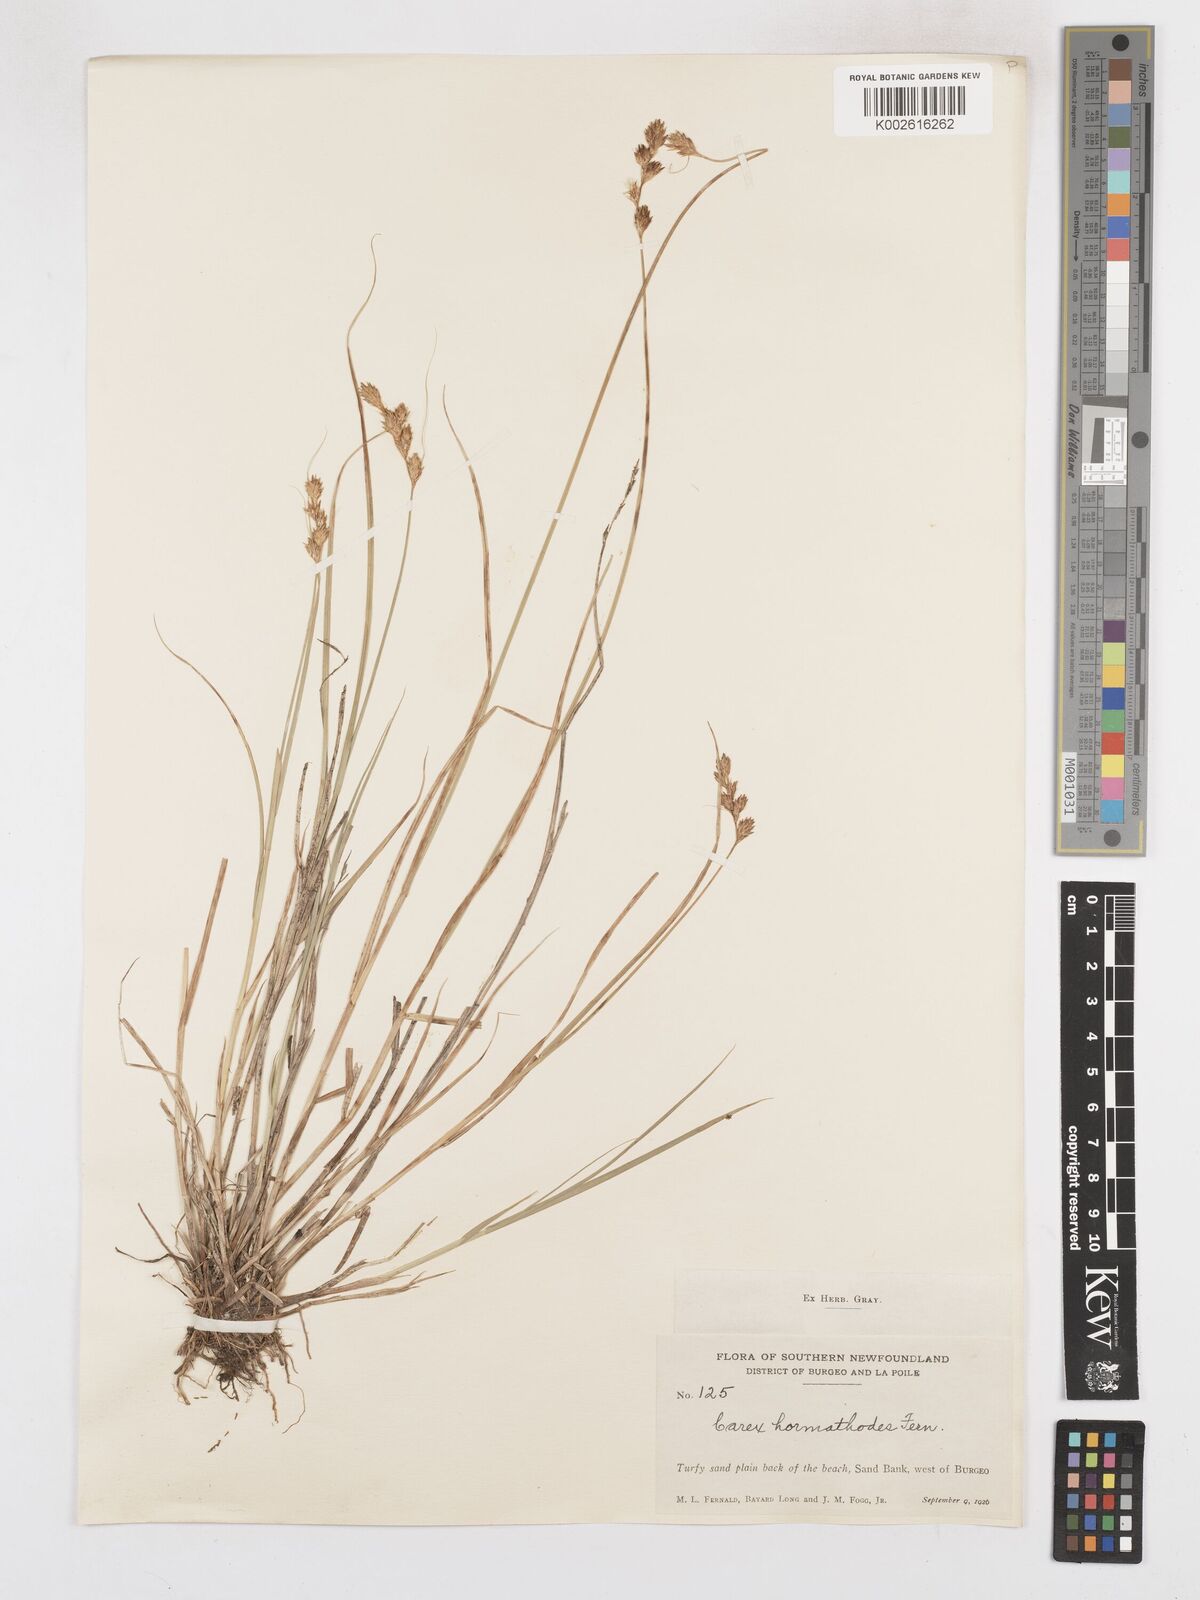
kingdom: Plantae
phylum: Tracheophyta
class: Liliopsida
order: Poales
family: Cyperaceae
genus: Carex
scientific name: Carex hormathodes
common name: Marsh straw sedge
